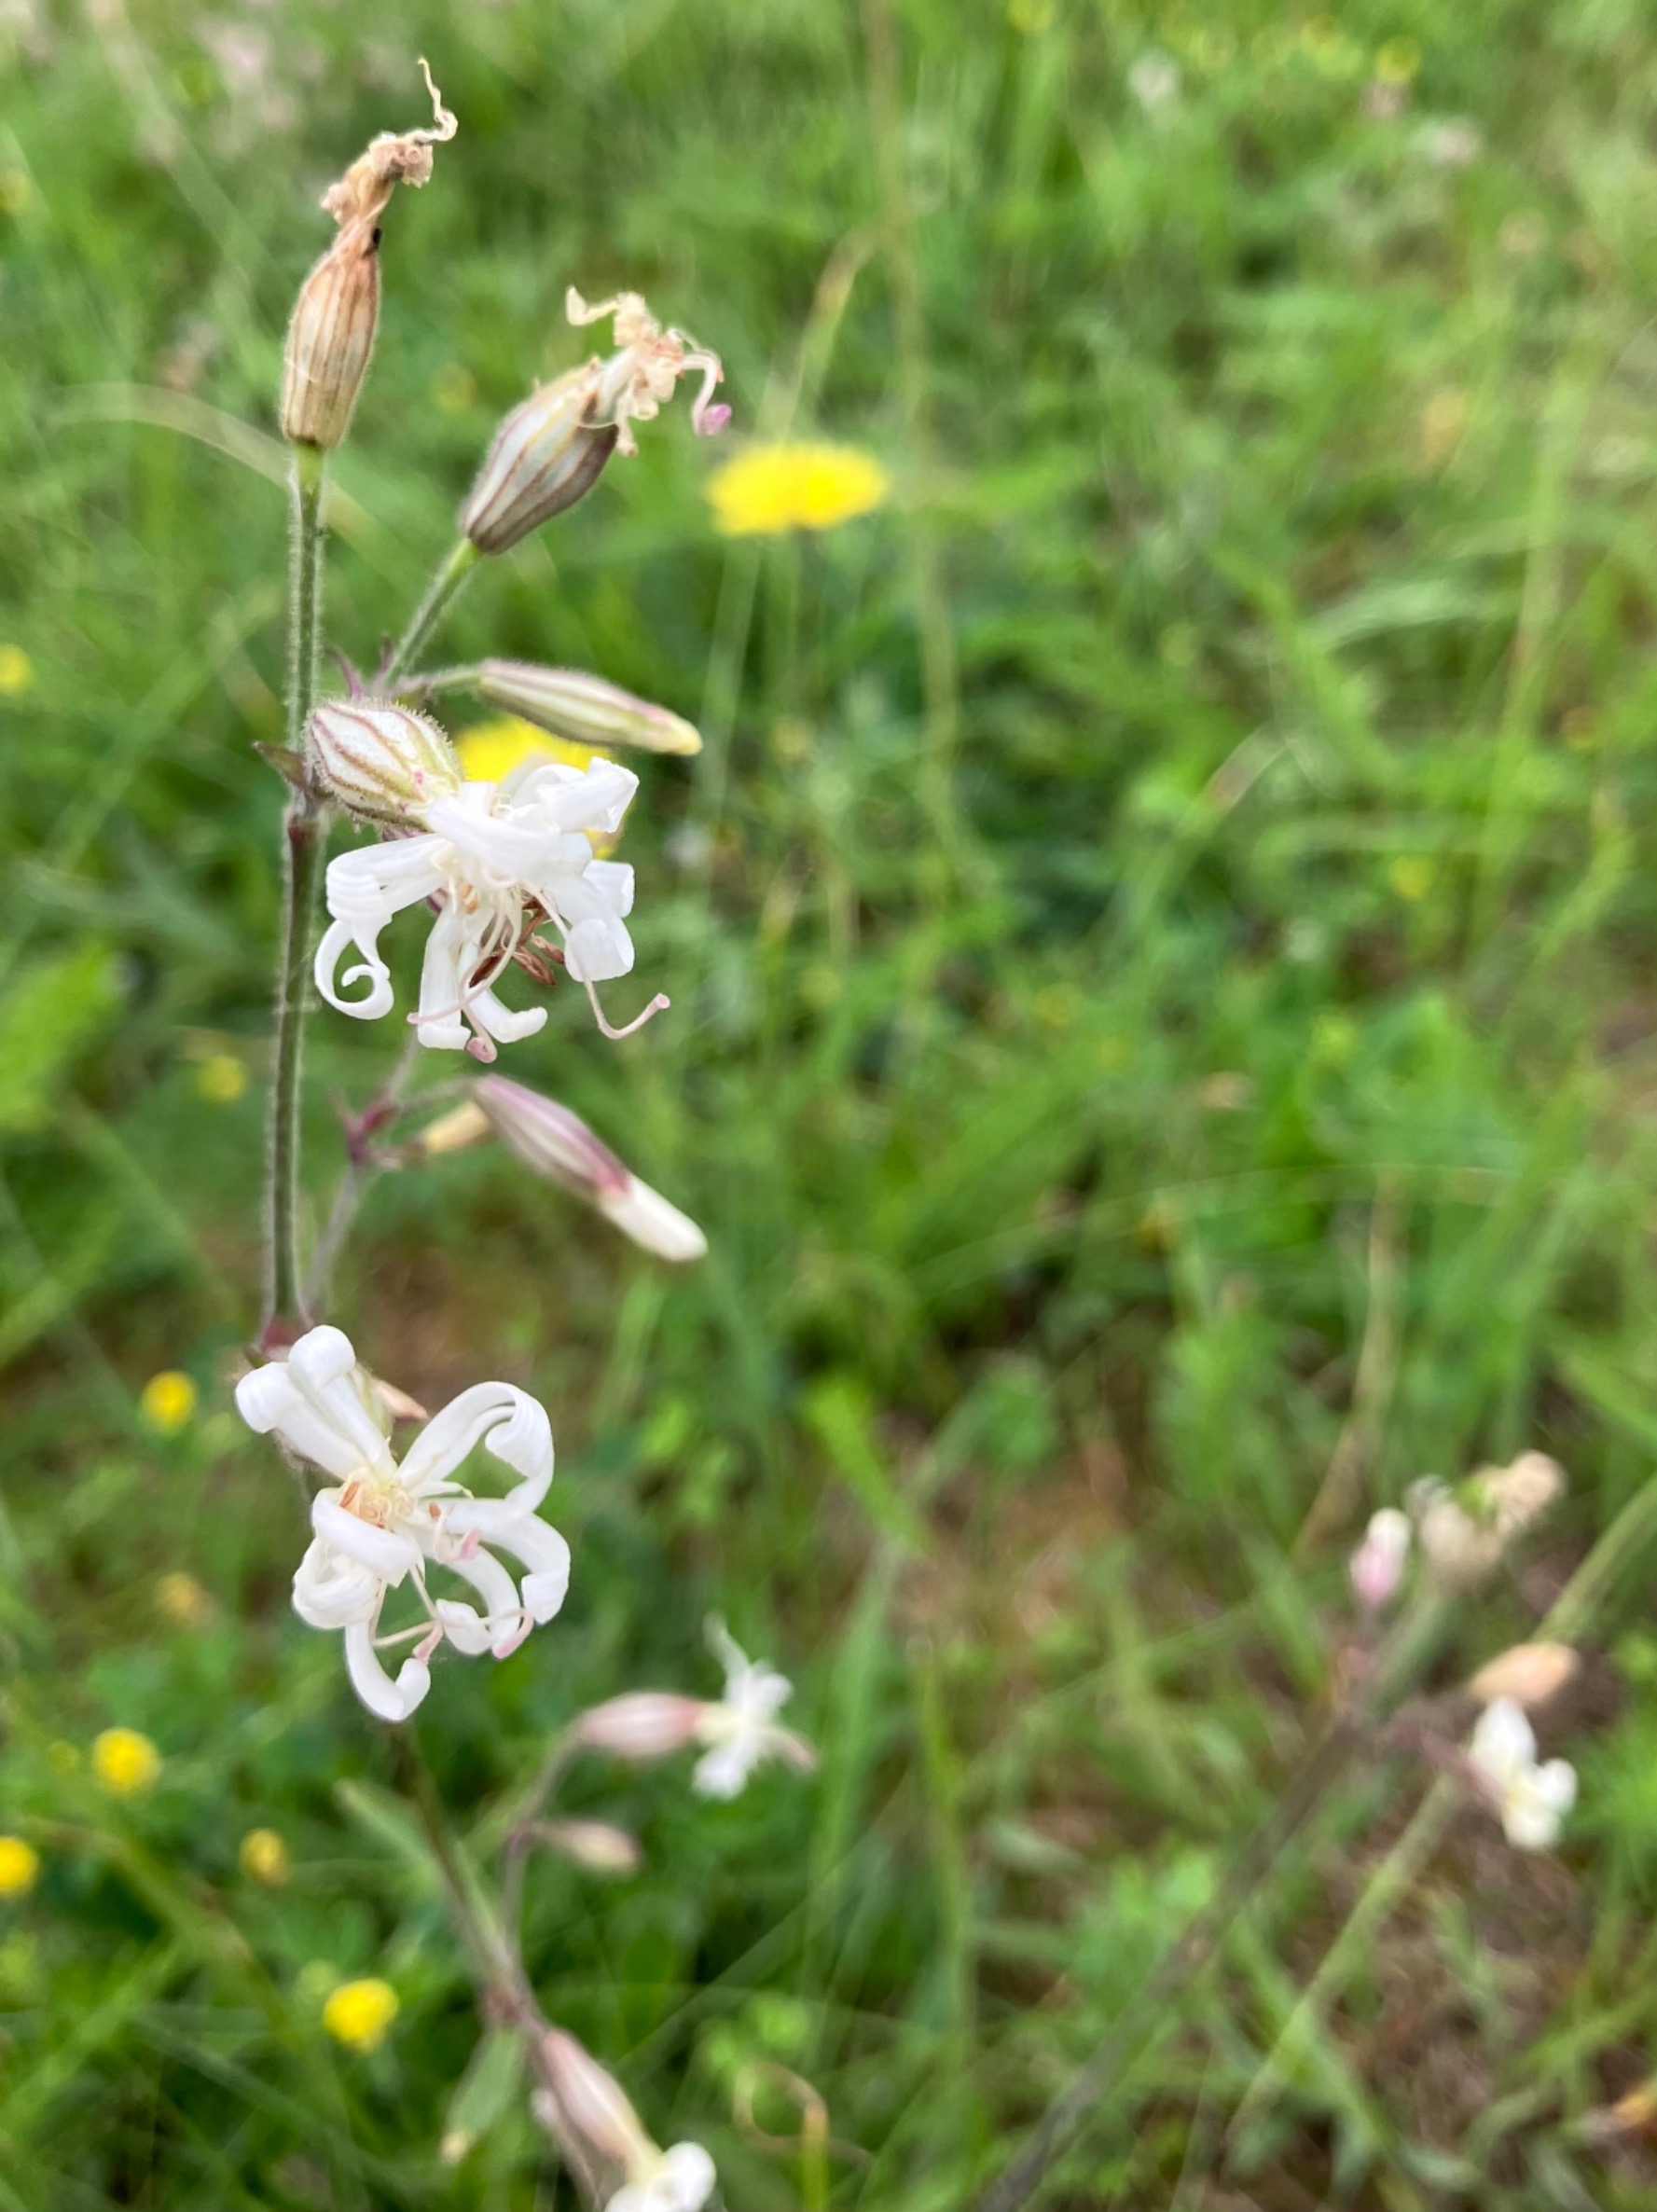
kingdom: Plantae
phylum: Tracheophyta
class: Magnoliopsida
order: Caryophyllales
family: Caryophyllaceae
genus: Silene
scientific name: Silene nutans
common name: Nikkende limurt
